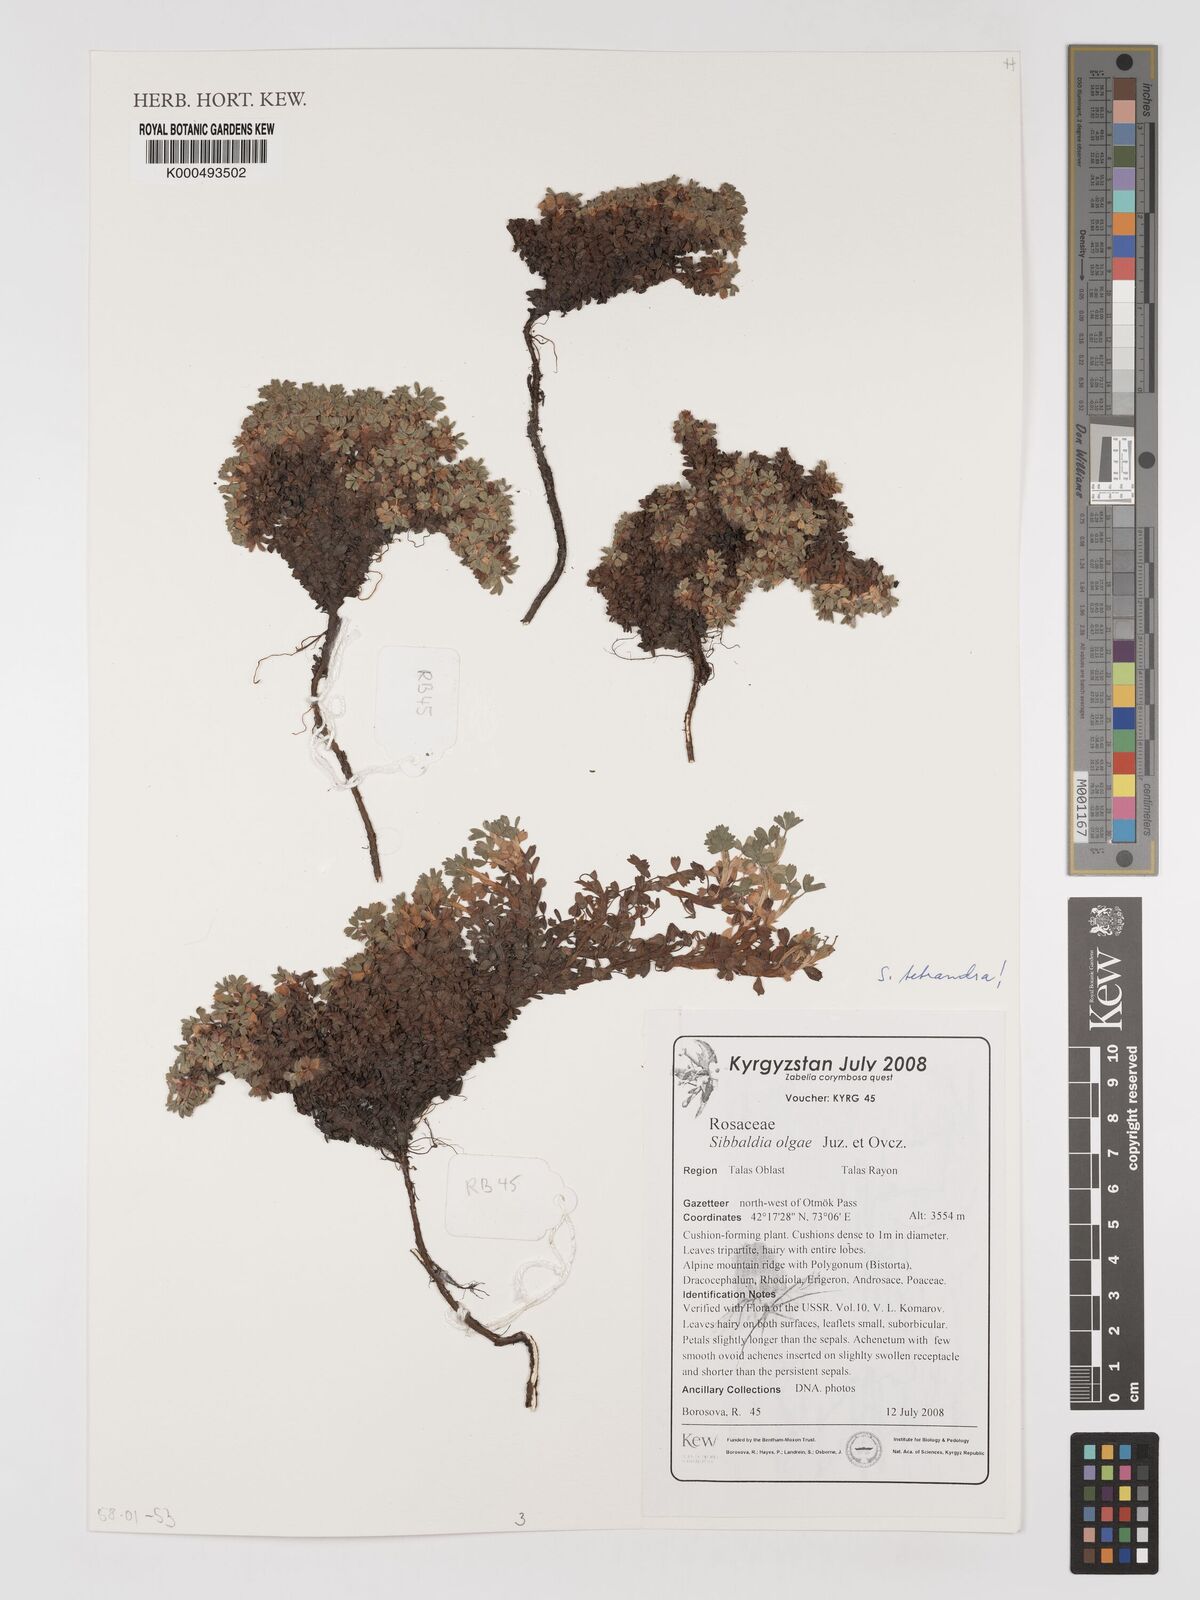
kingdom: Plantae
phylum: Tracheophyta
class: Magnoliopsida
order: Rosales
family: Rosaceae
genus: Sibbaldia
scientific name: Sibbaldia olgae
